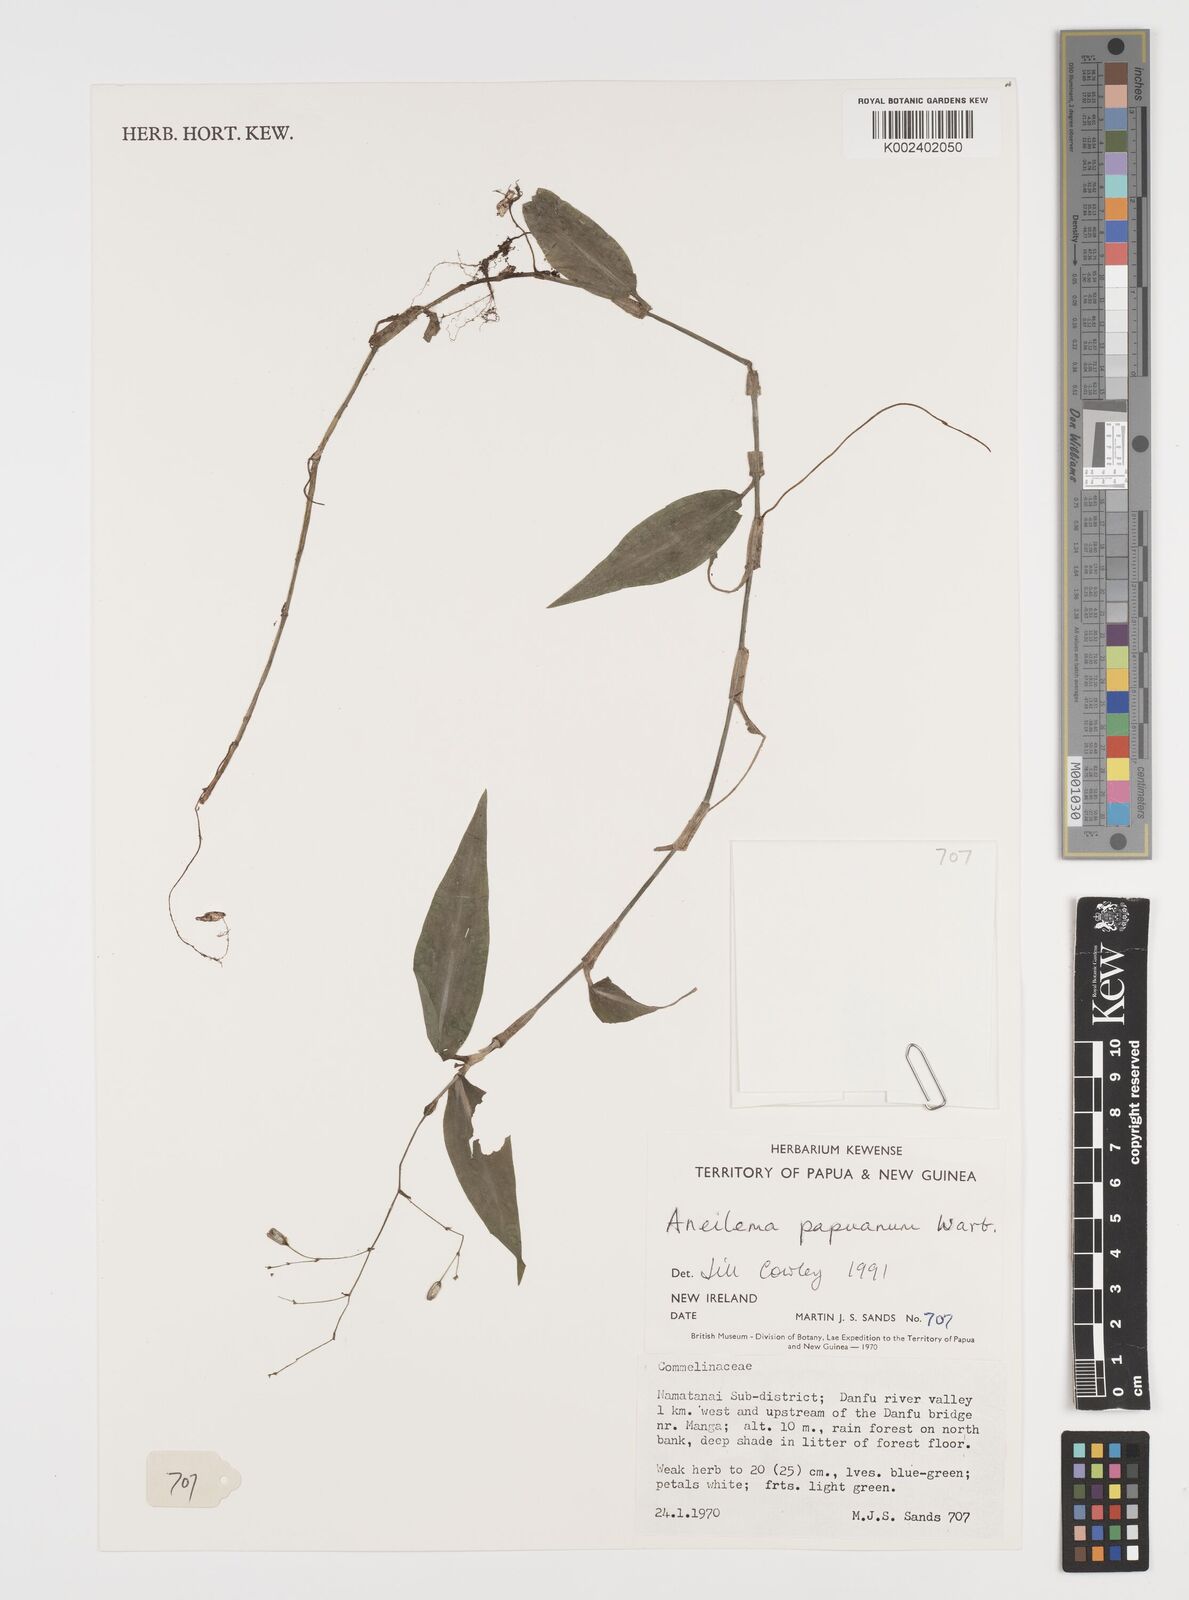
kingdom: Plantae
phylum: Tracheophyta
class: Liliopsida
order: Commelinales
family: Commelinaceae
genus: Aneilema
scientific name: Aneilema acuminatum
